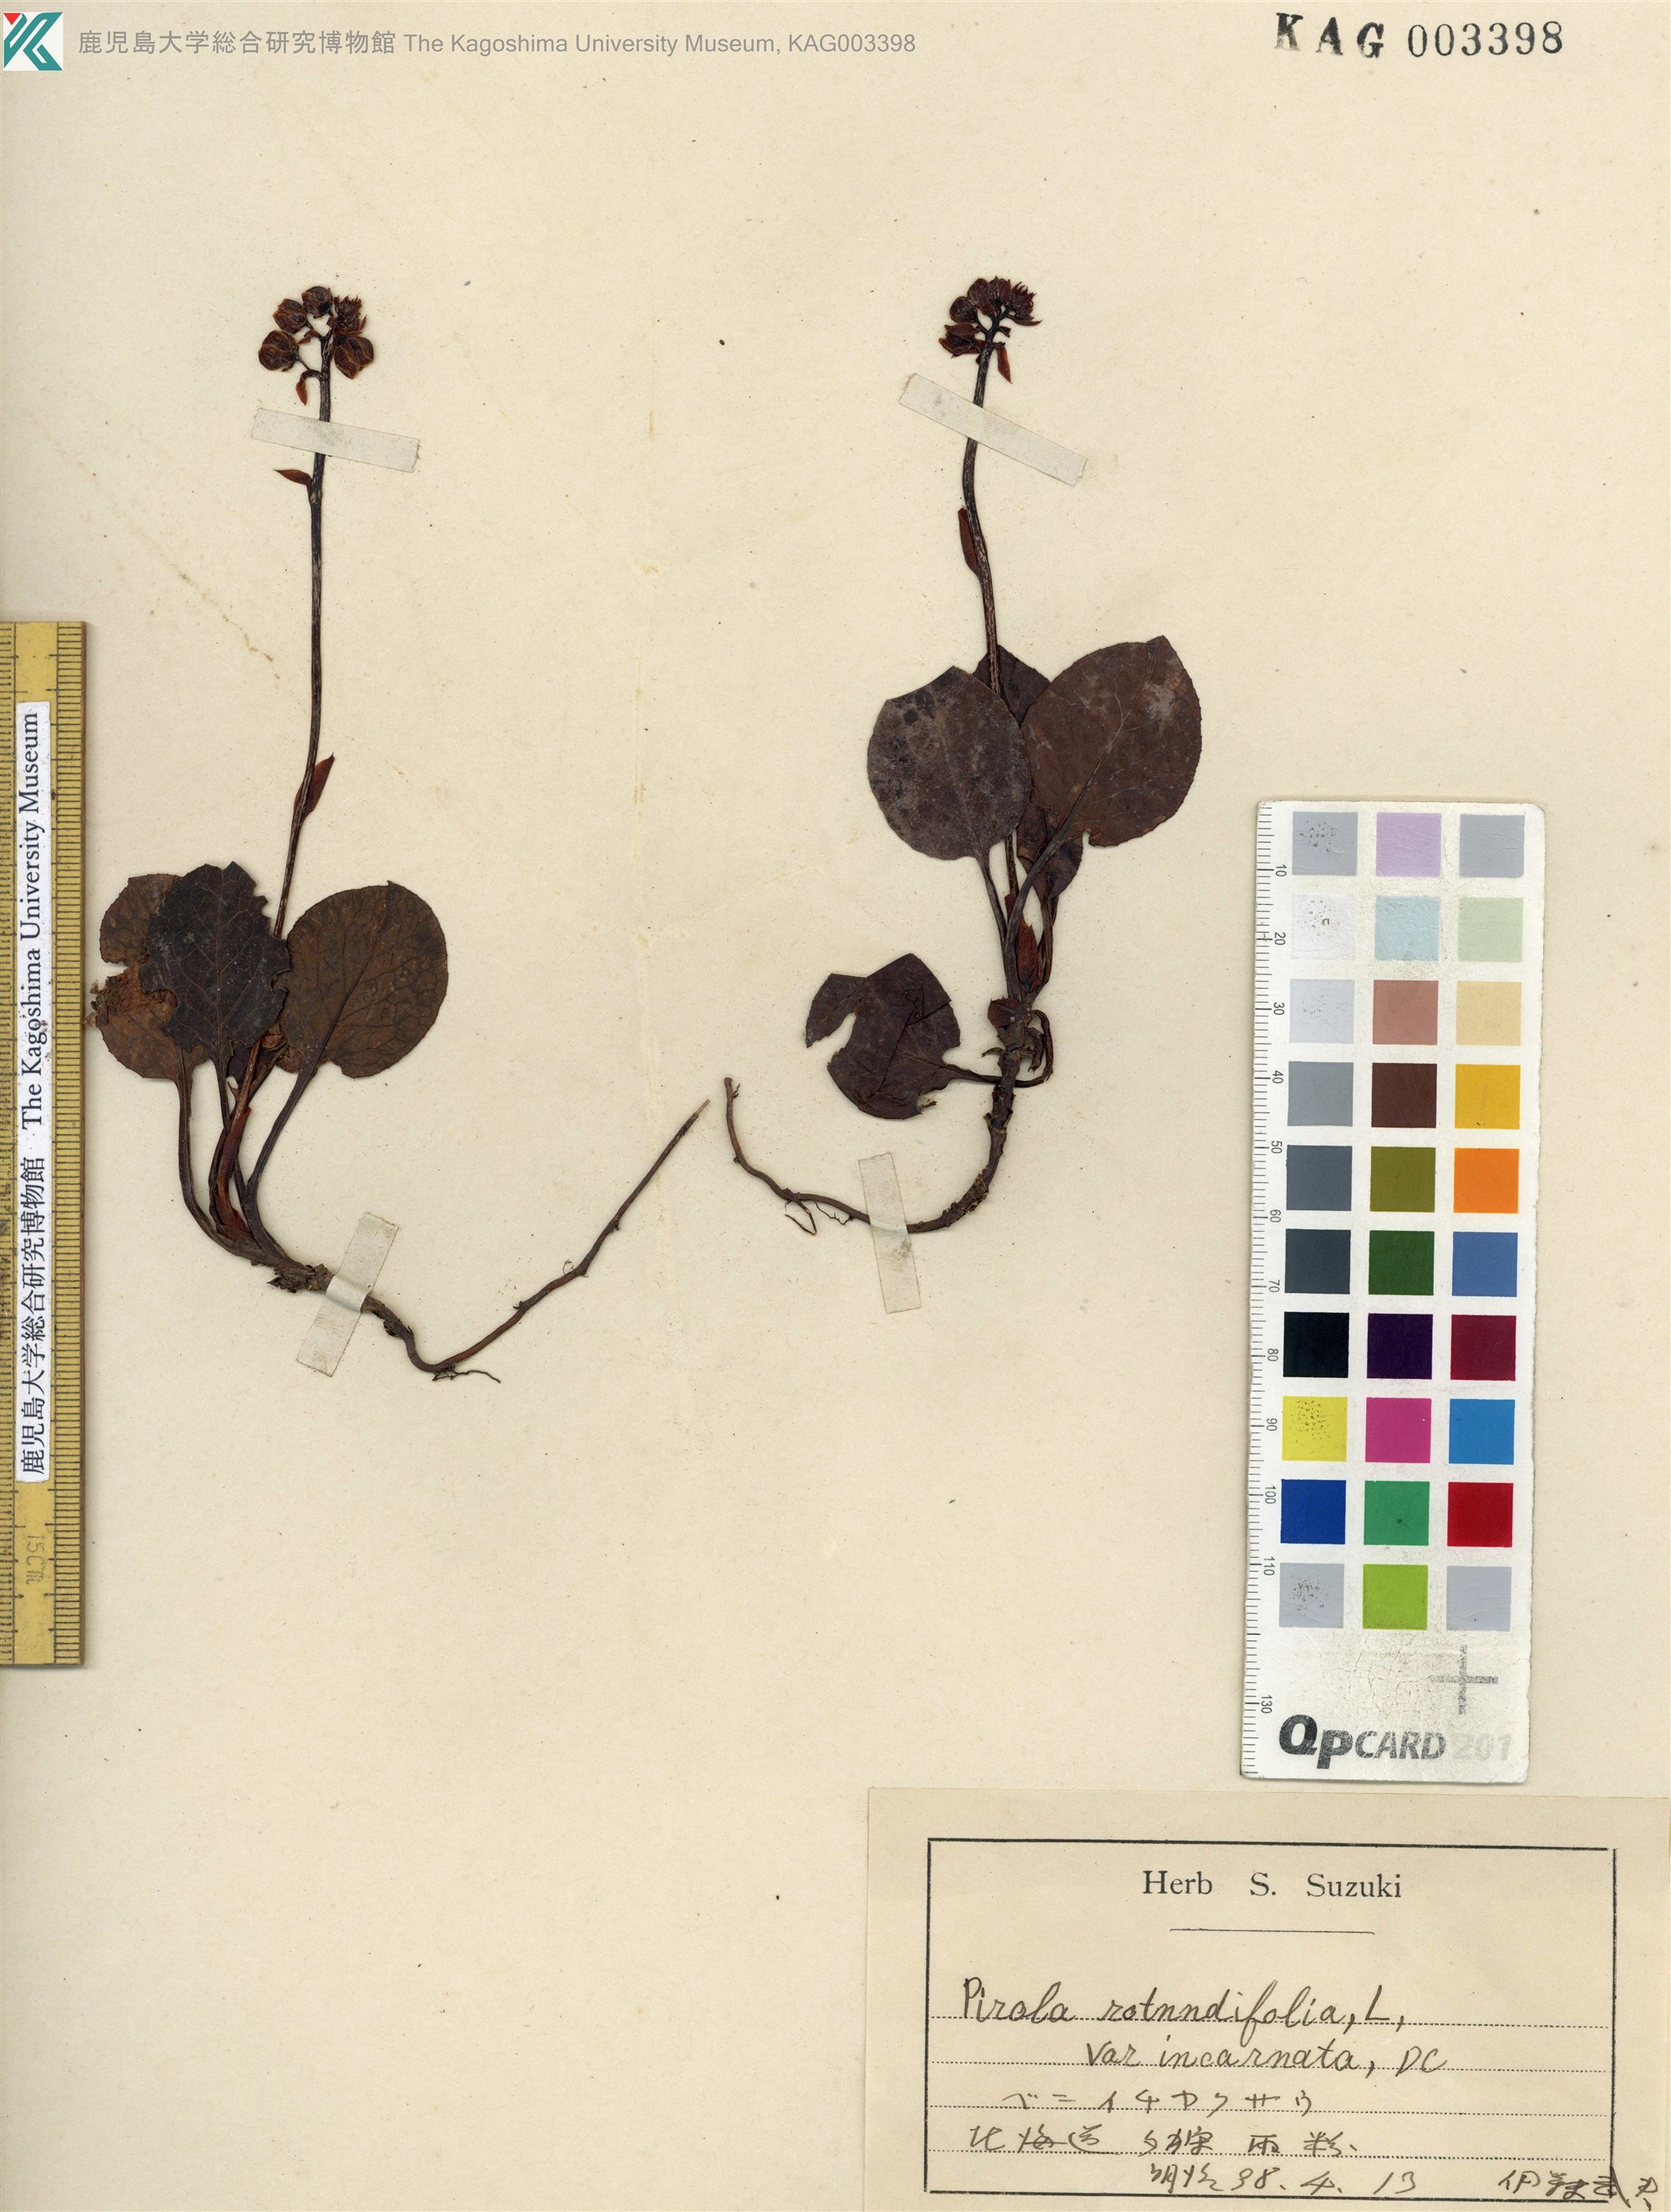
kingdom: Plantae
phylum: Tracheophyta
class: Magnoliopsida
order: Ericales
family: Ericaceae
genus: Pyrola
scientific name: Pyrola asarifolia
